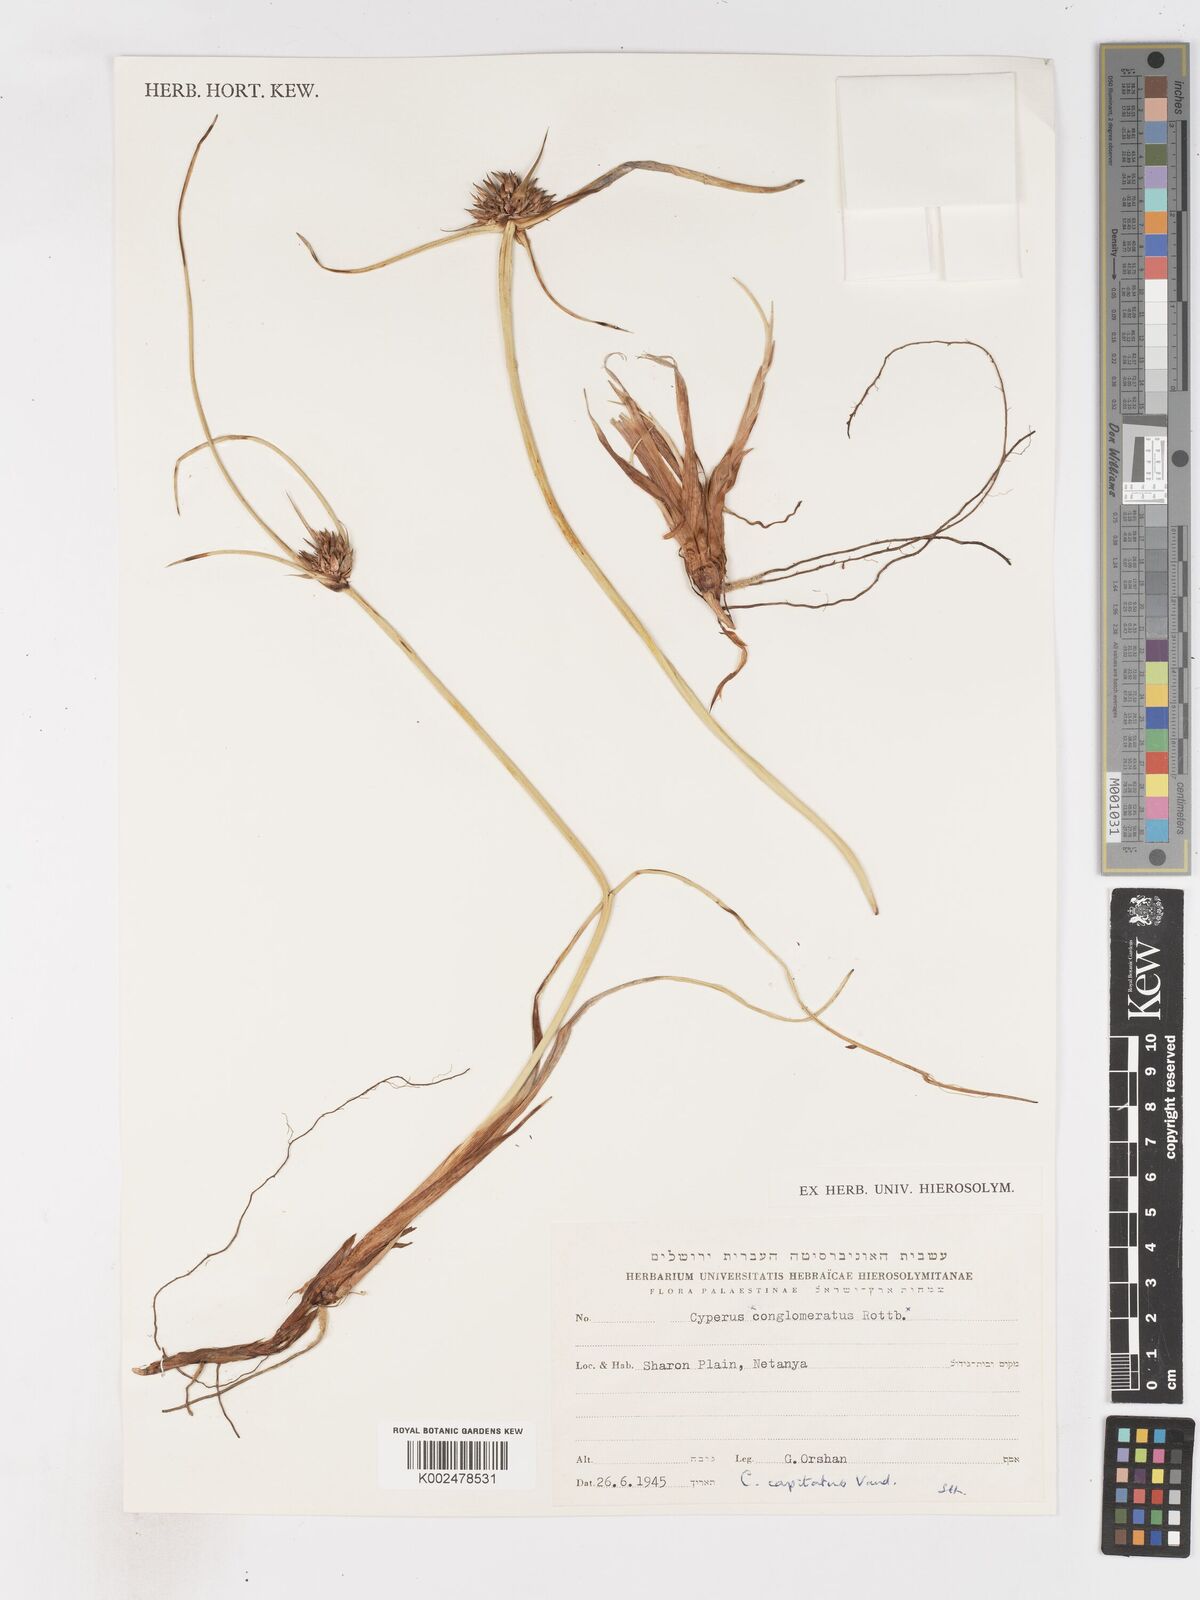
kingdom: Plantae
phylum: Tracheophyta
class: Liliopsida
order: Poales
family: Cyperaceae
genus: Cyperus
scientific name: Cyperus capitatus
